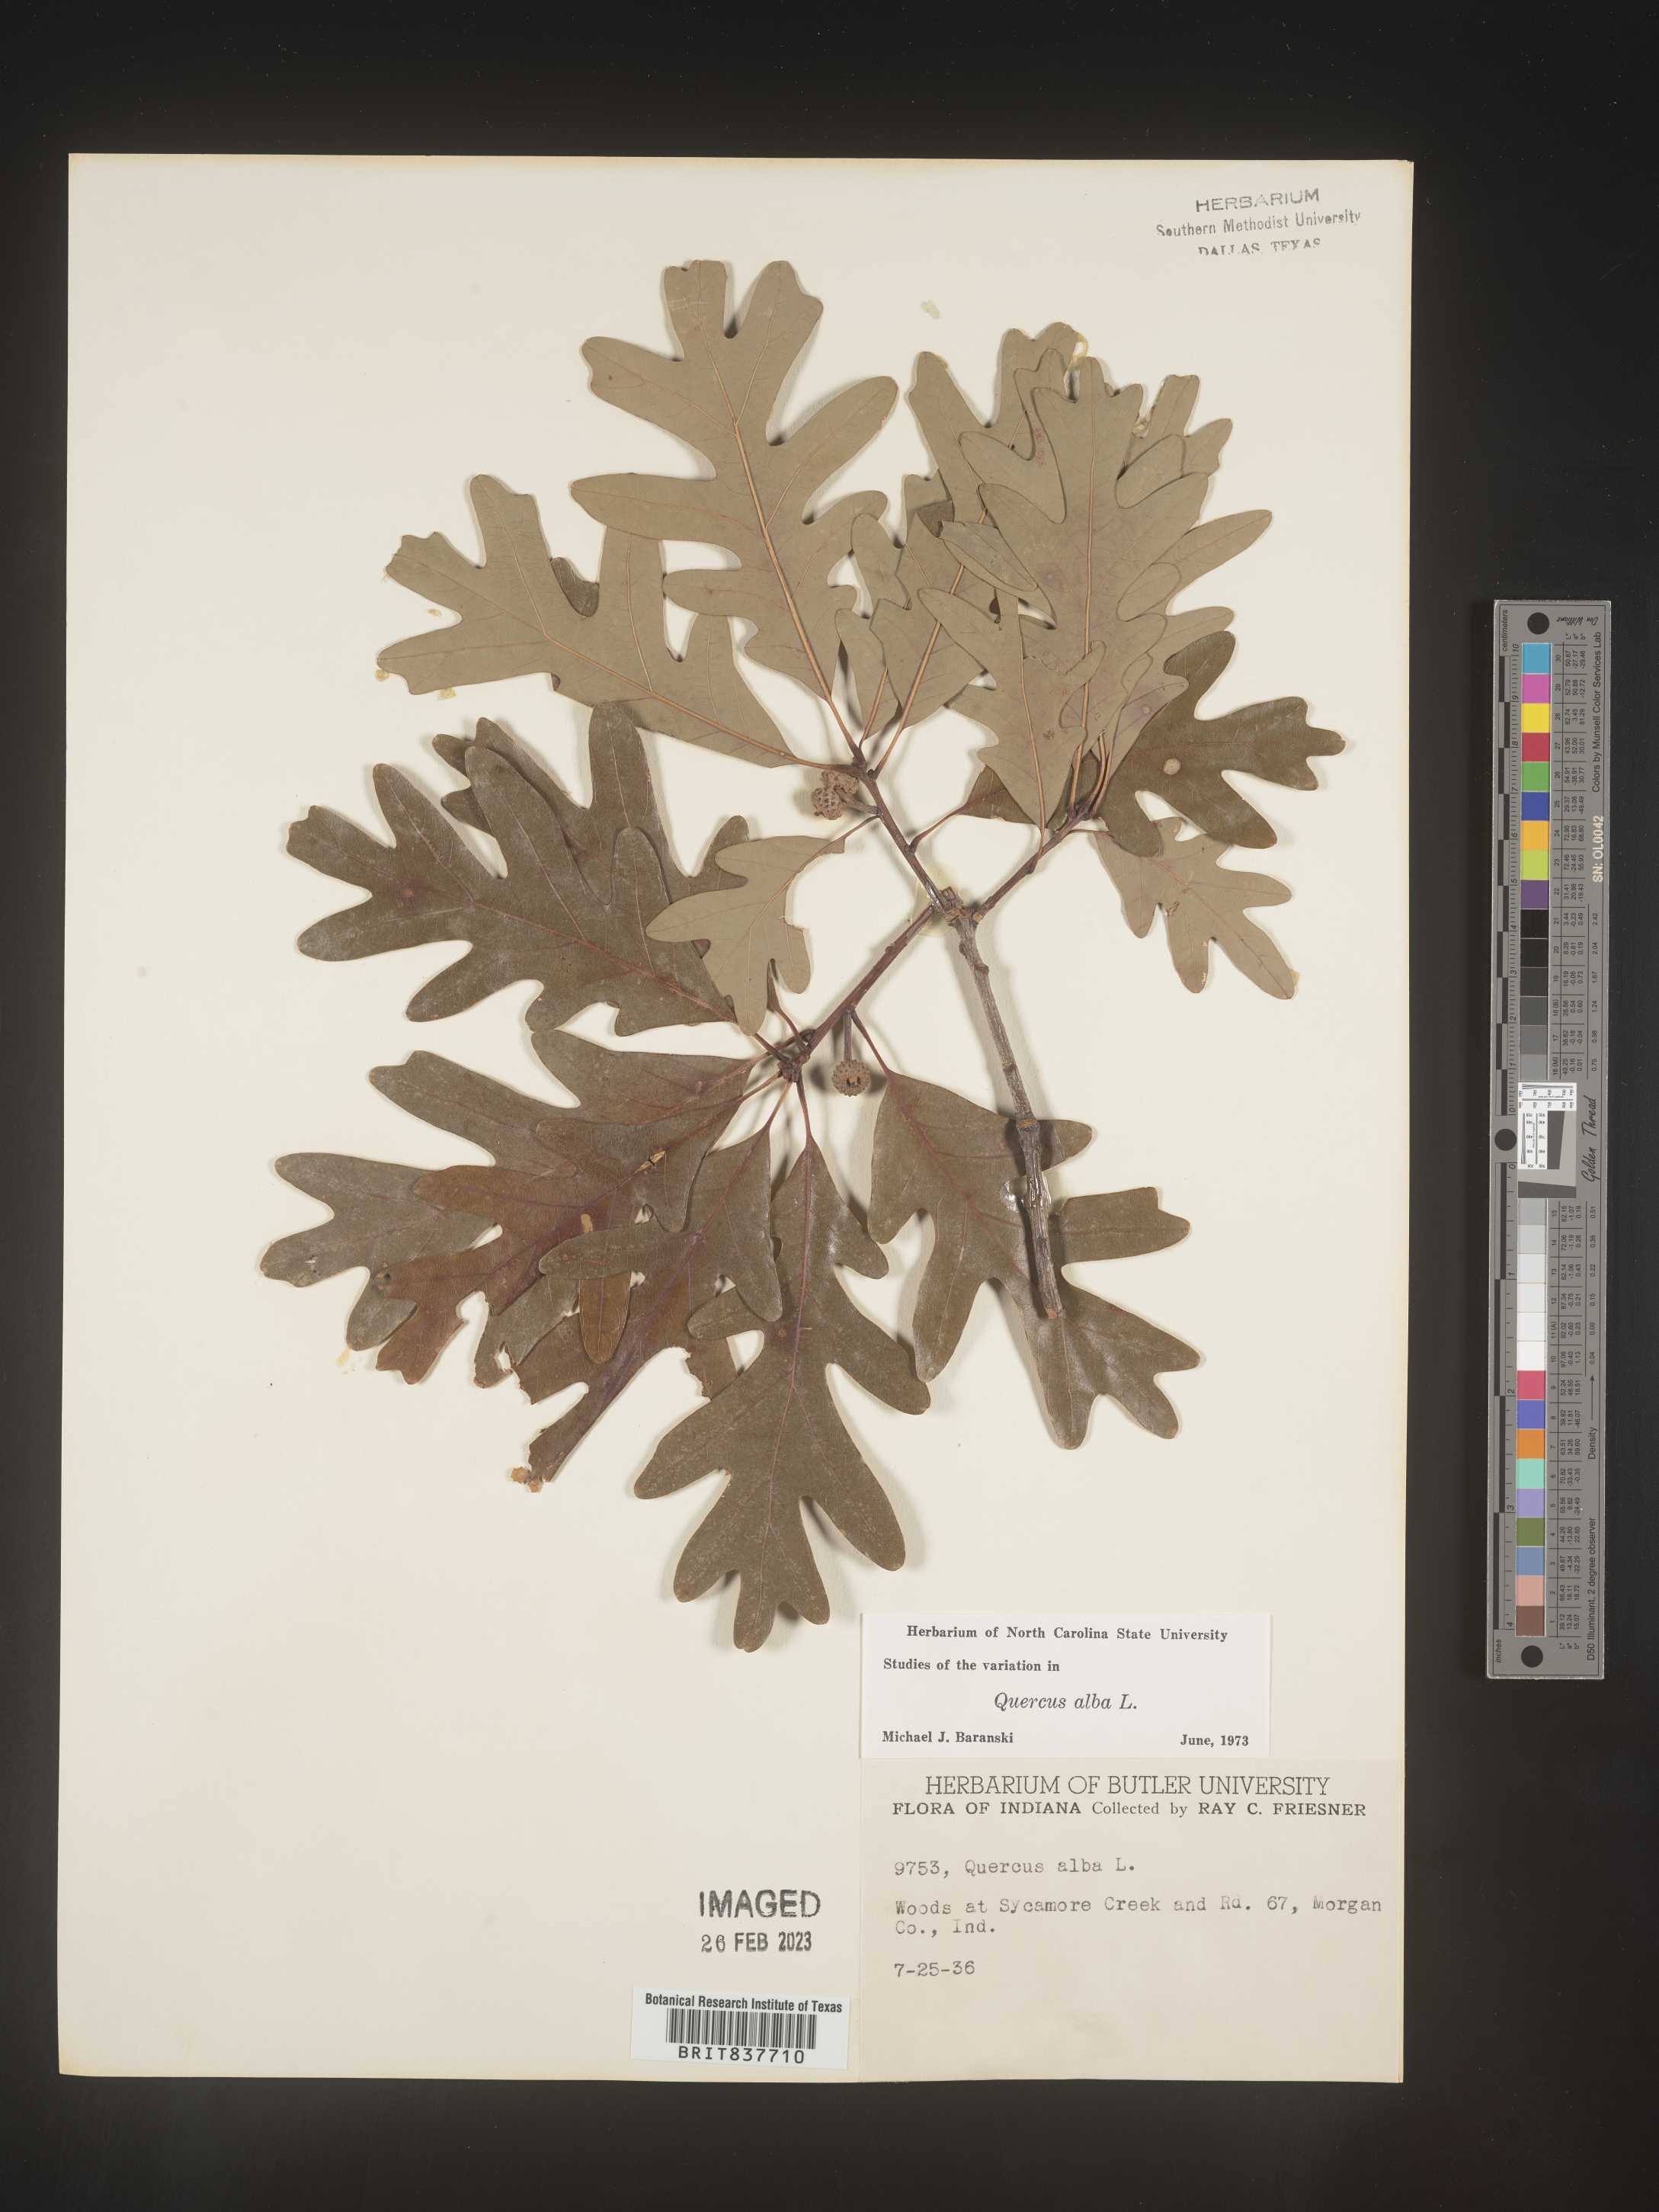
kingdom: Plantae
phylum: Tracheophyta
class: Magnoliopsida
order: Fagales
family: Fagaceae
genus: Quercus
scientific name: Quercus alba
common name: White oak
